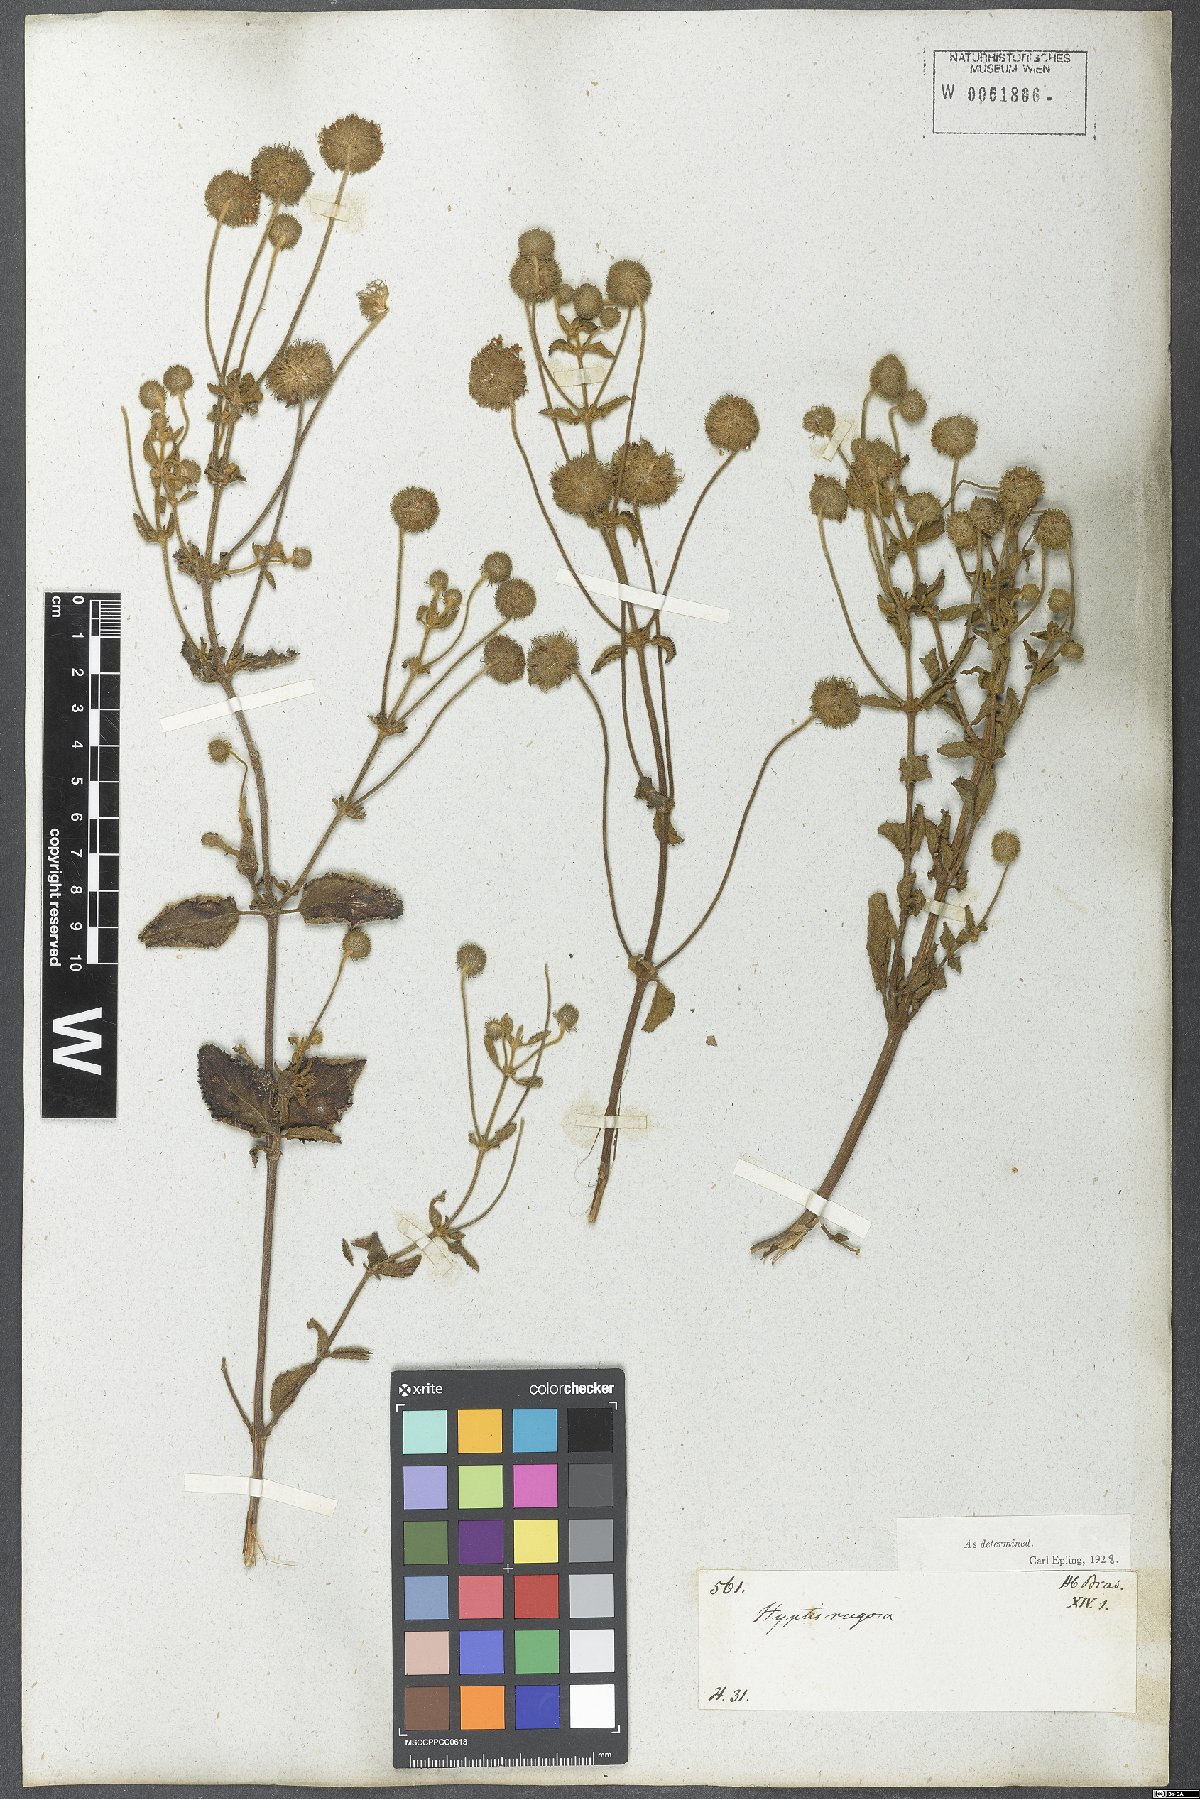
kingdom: Plantae
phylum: Tracheophyta
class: Magnoliopsida
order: Lamiales
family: Lamiaceae
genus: Cyanocephalus
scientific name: Cyanocephalus rugosus
